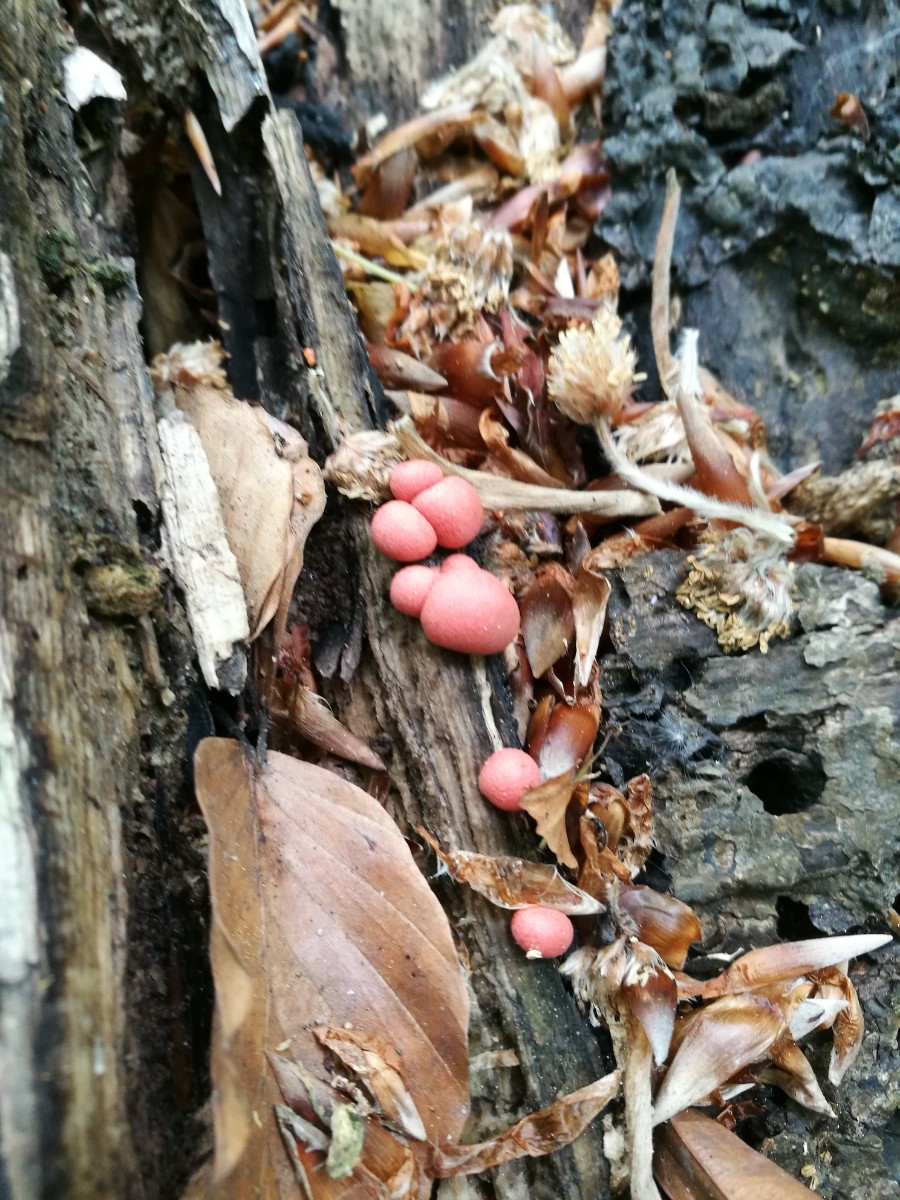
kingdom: Protozoa
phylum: Mycetozoa
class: Myxomycetes
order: Cribrariales
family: Tubiferaceae
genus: Lycogala
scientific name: Lycogala epidendrum
